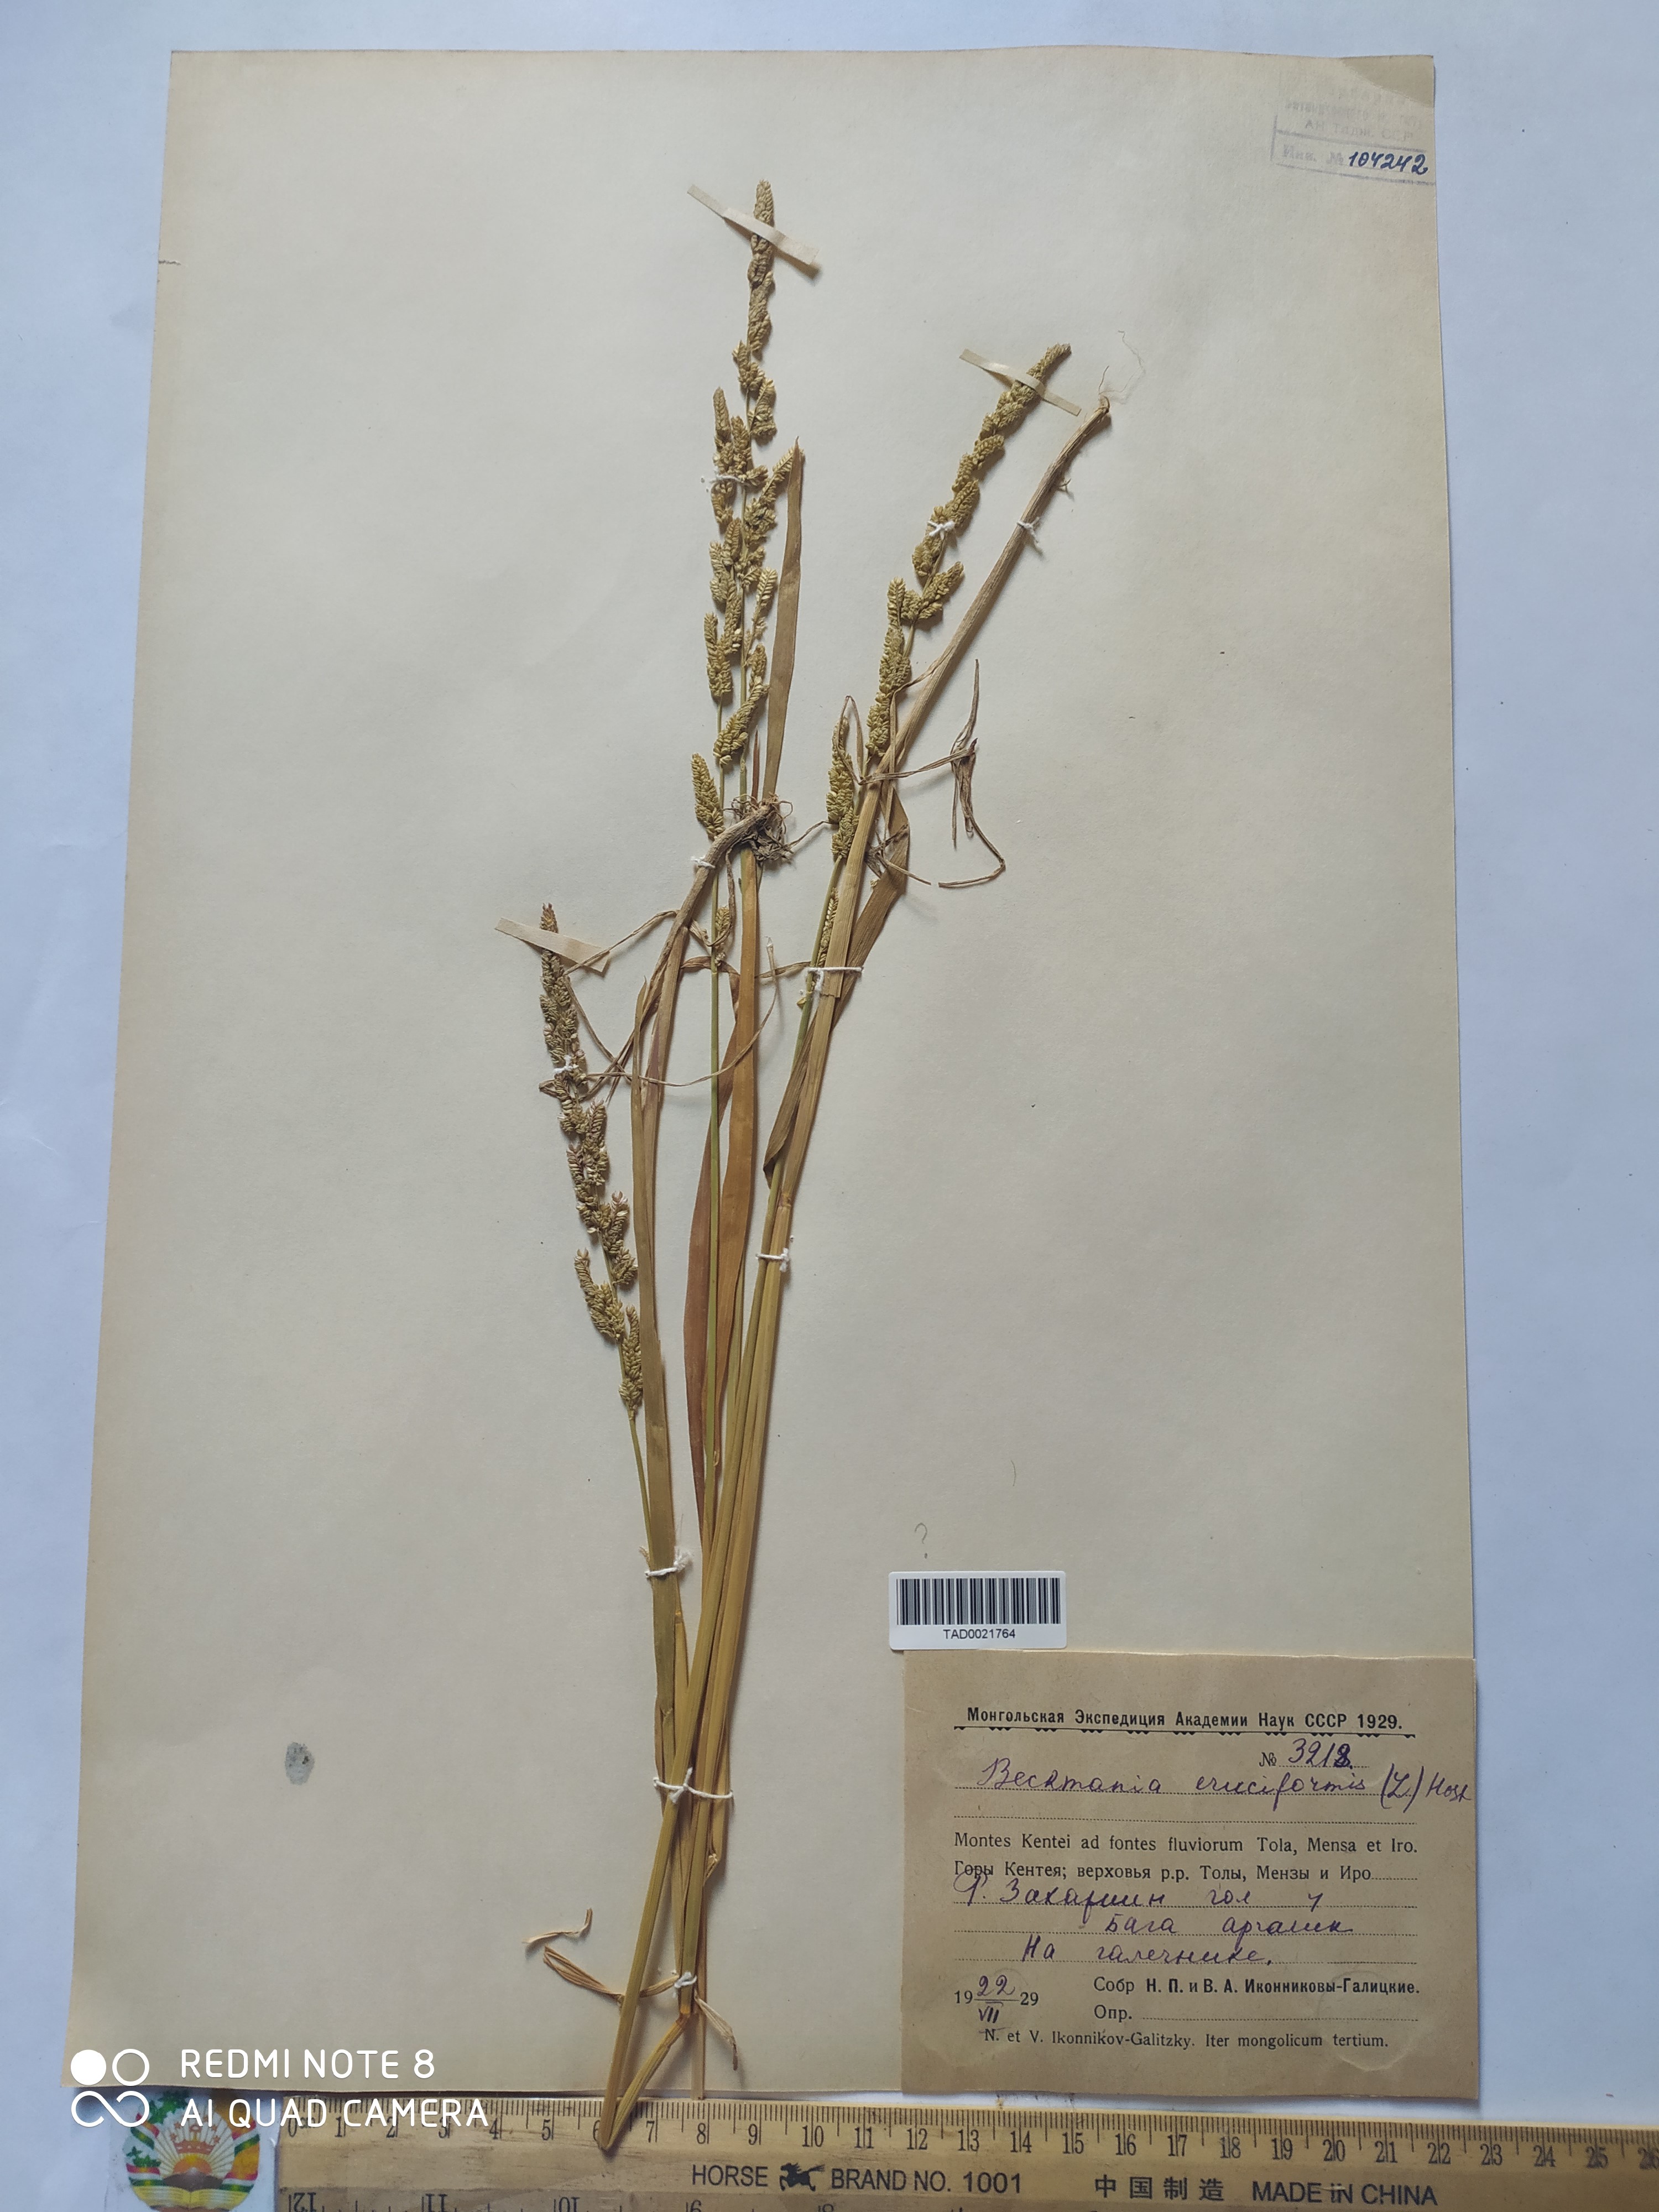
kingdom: Plantae
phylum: Tracheophyta
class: Liliopsida
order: Poales
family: Poaceae
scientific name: Poaceae
